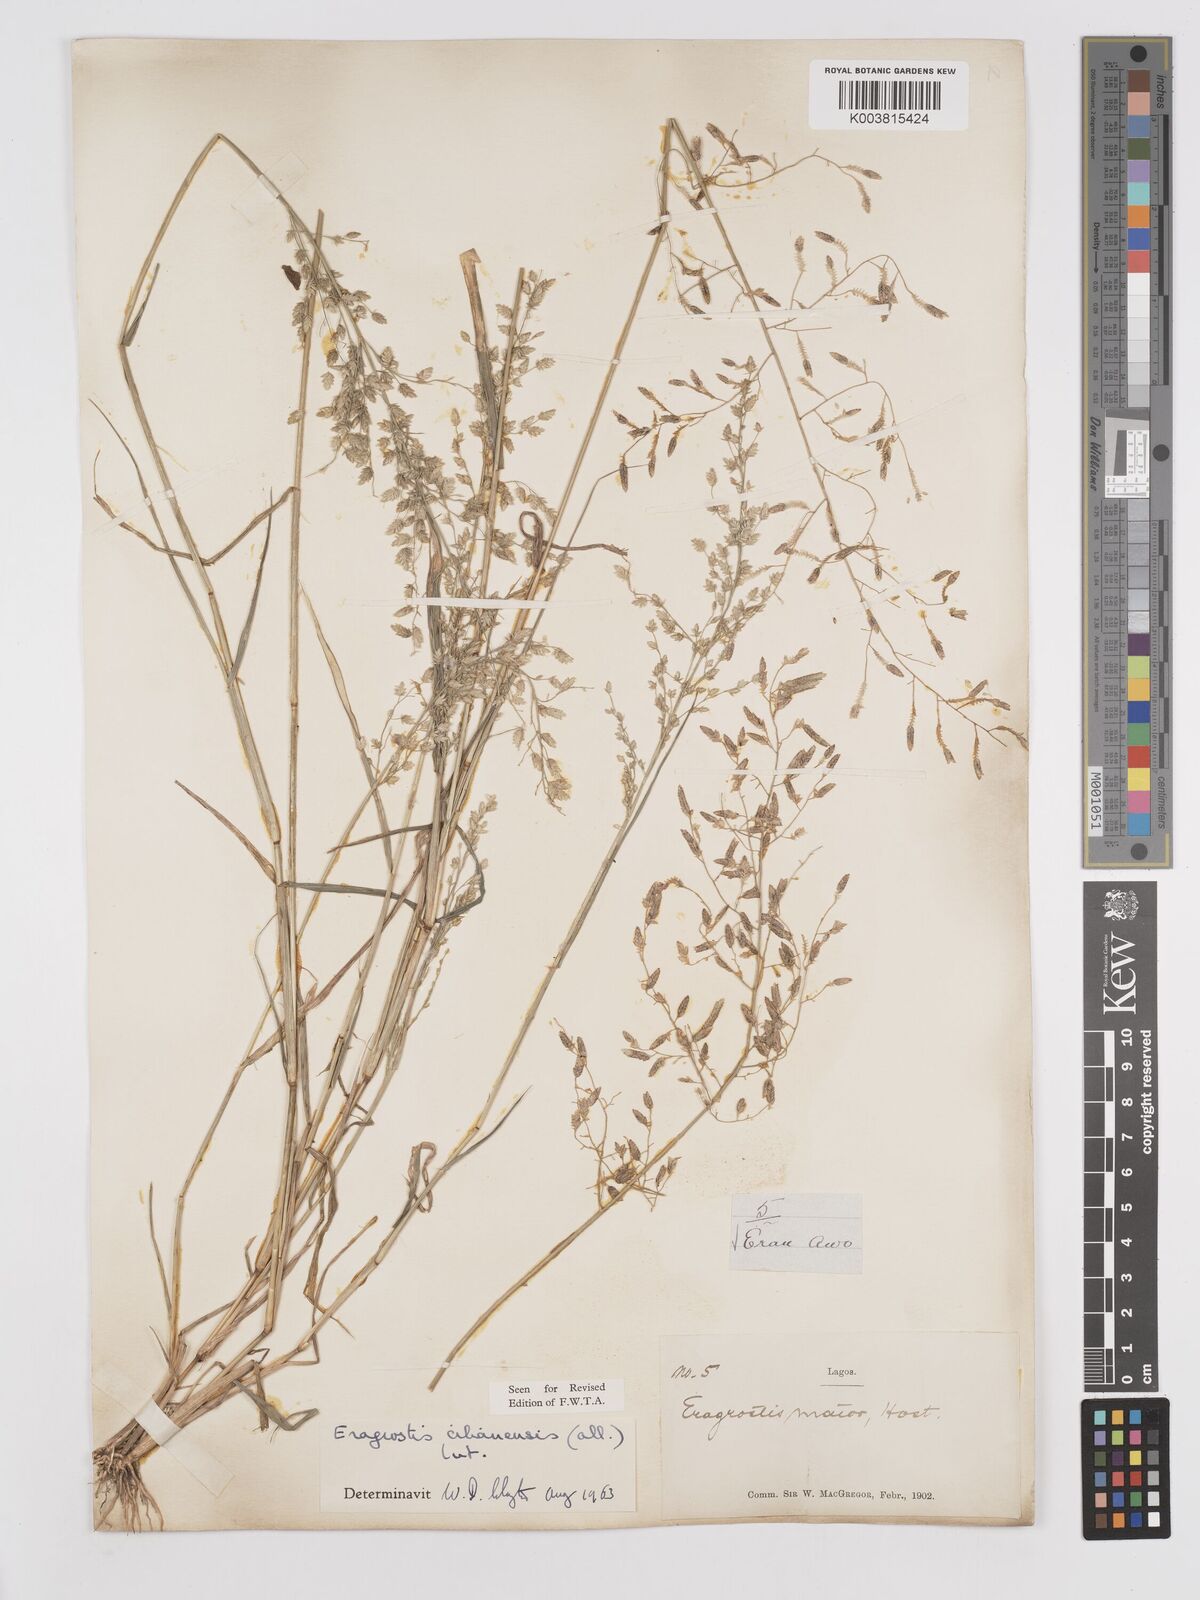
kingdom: Plantae
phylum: Tracheophyta
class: Liliopsida
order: Poales
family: Poaceae
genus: Eragrostis
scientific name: Eragrostis cilianensis
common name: Stinkgrass
